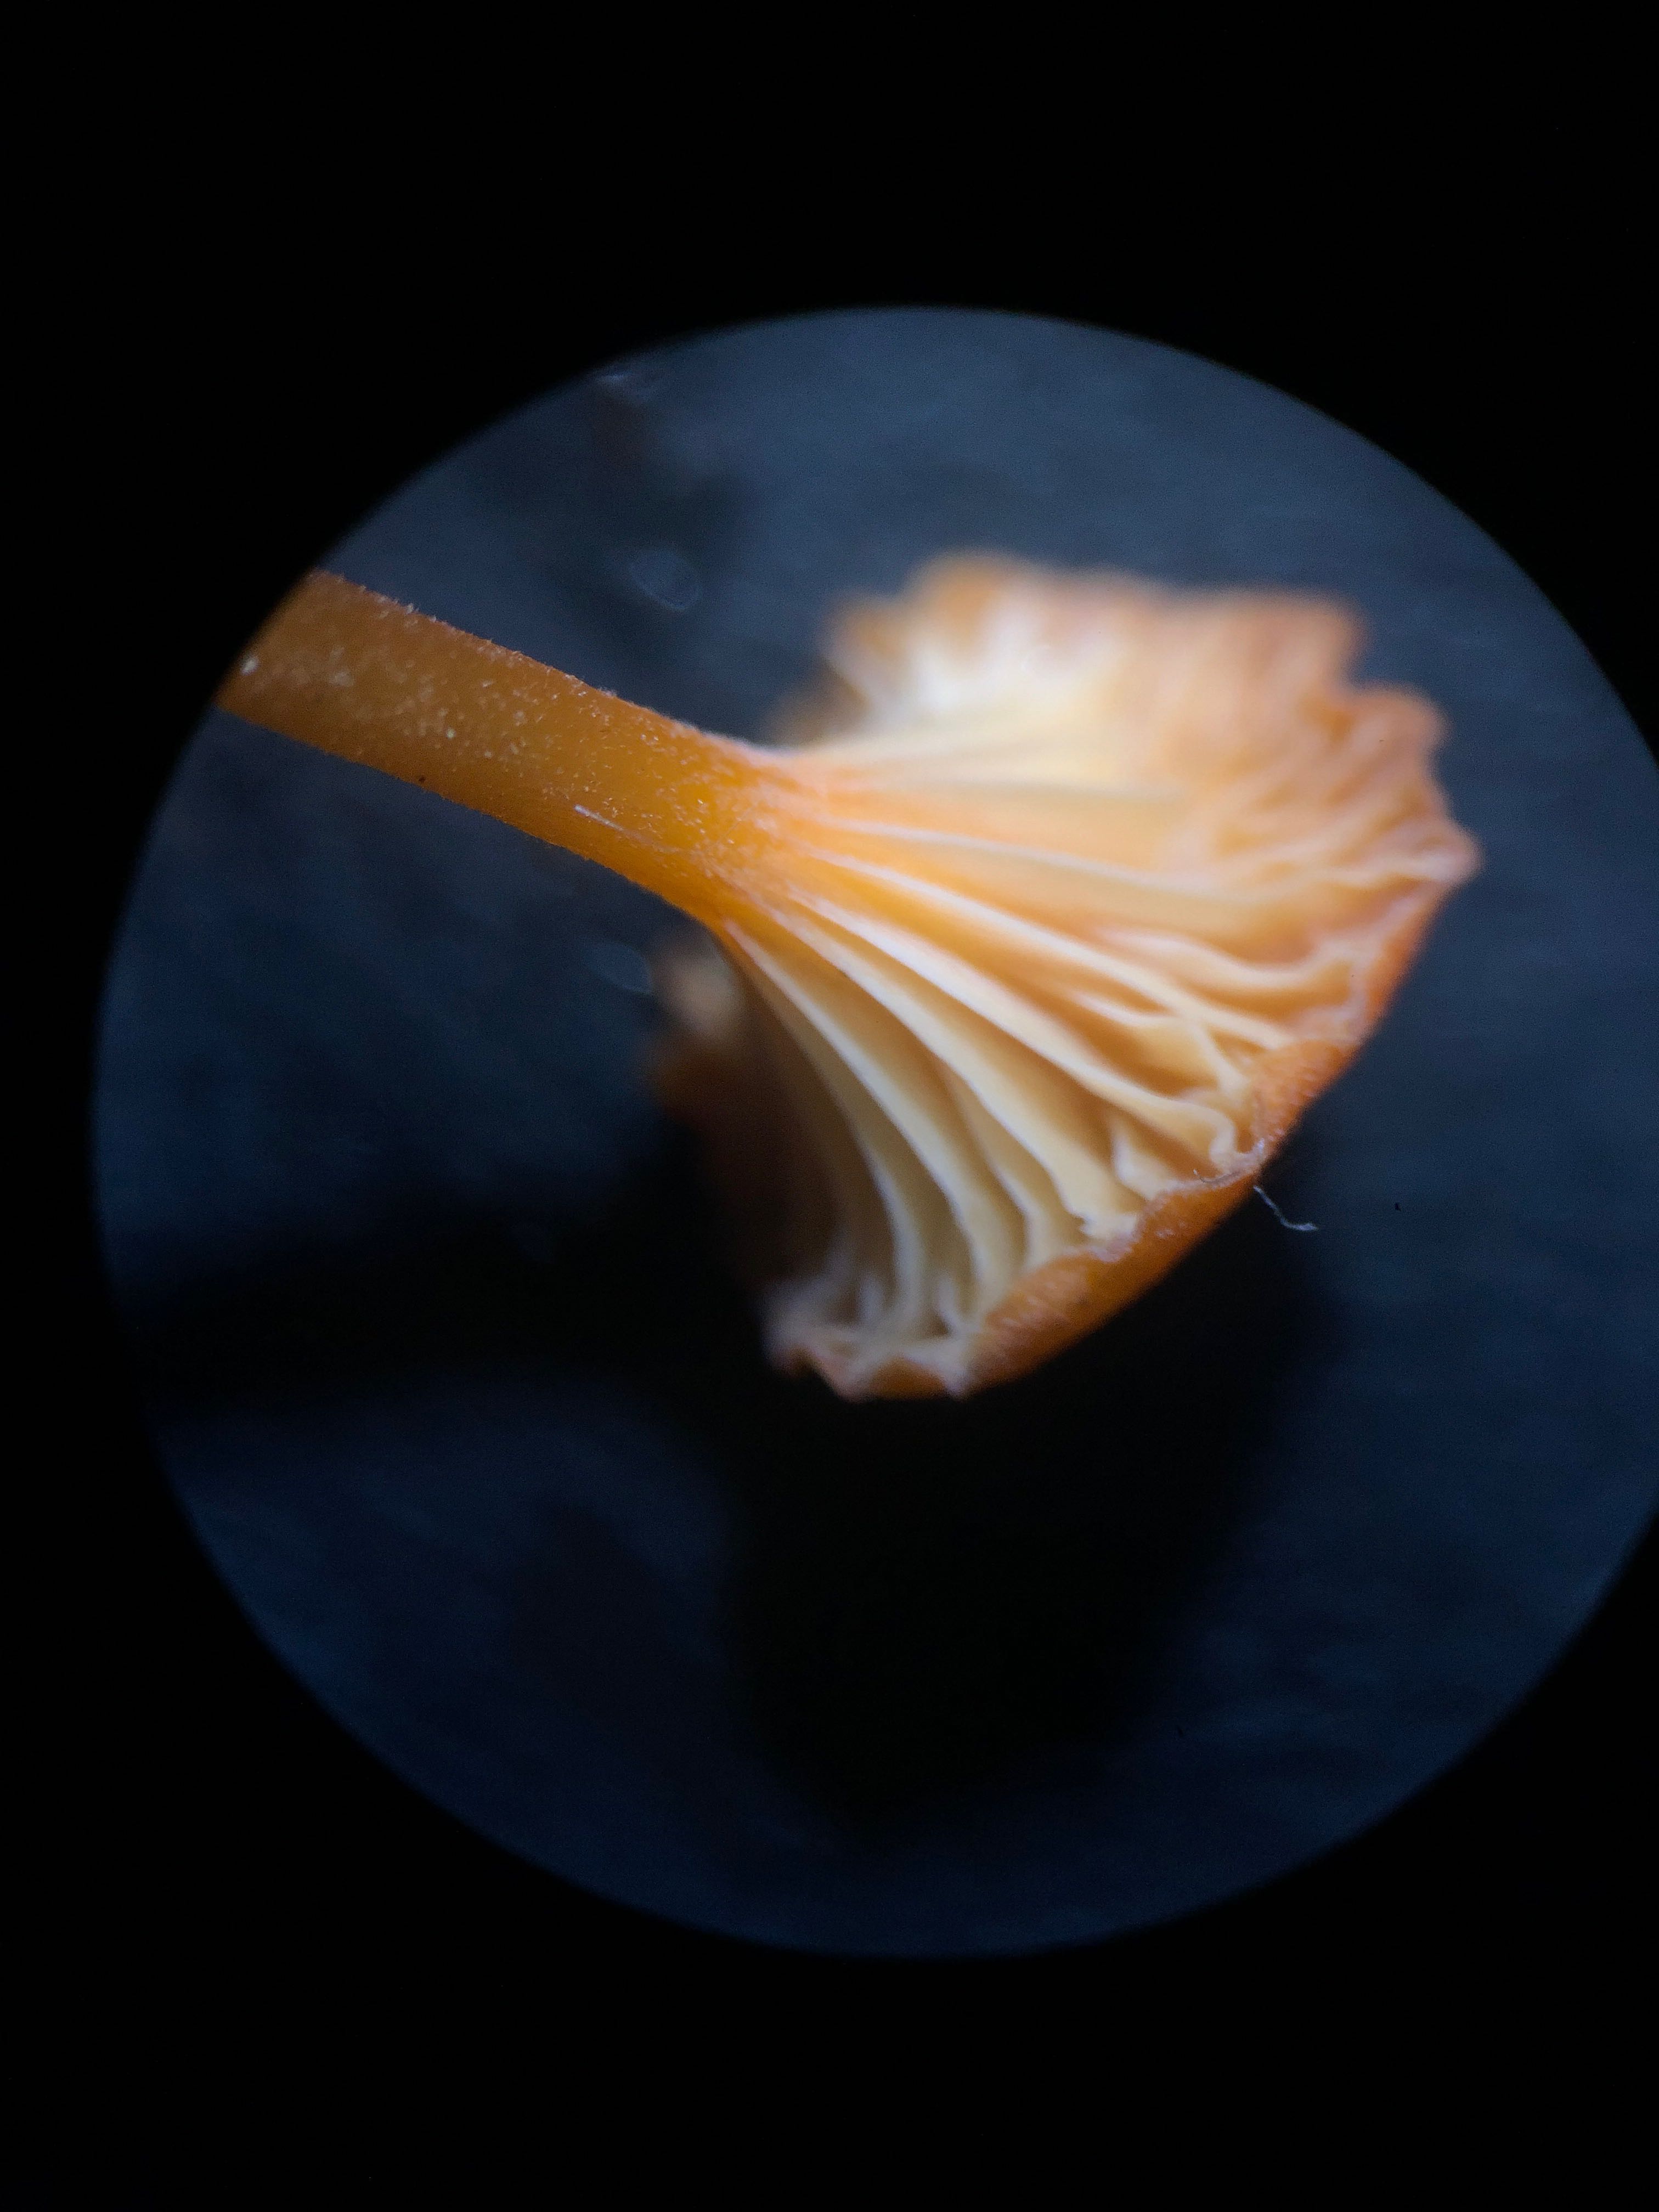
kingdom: Fungi
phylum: Basidiomycota
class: Agaricomycetes
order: Hymenochaetales
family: Rickenellaceae
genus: Rickenella
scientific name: Rickenella fibula
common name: orange mosnavlehat
